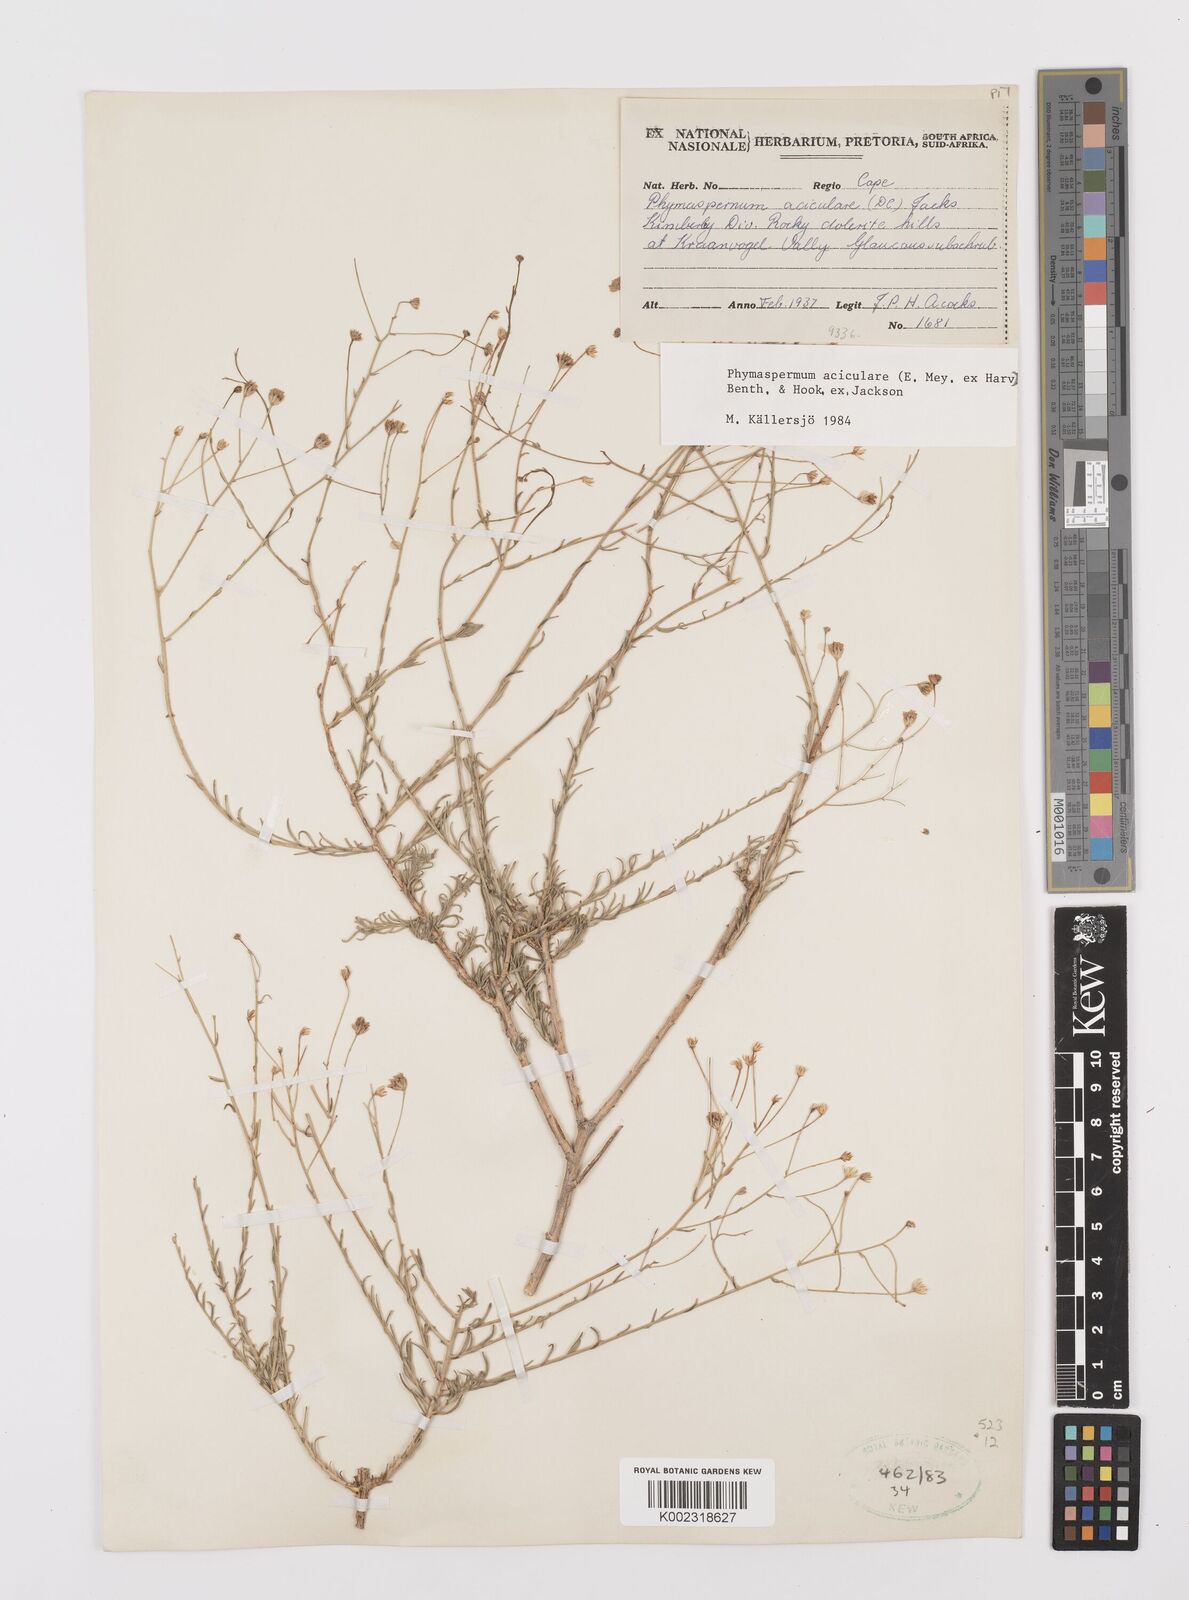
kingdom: Plantae
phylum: Tracheophyta
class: Magnoliopsida
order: Asterales
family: Asteraceae
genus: Phymaspermum
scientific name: Phymaspermum aciculare
